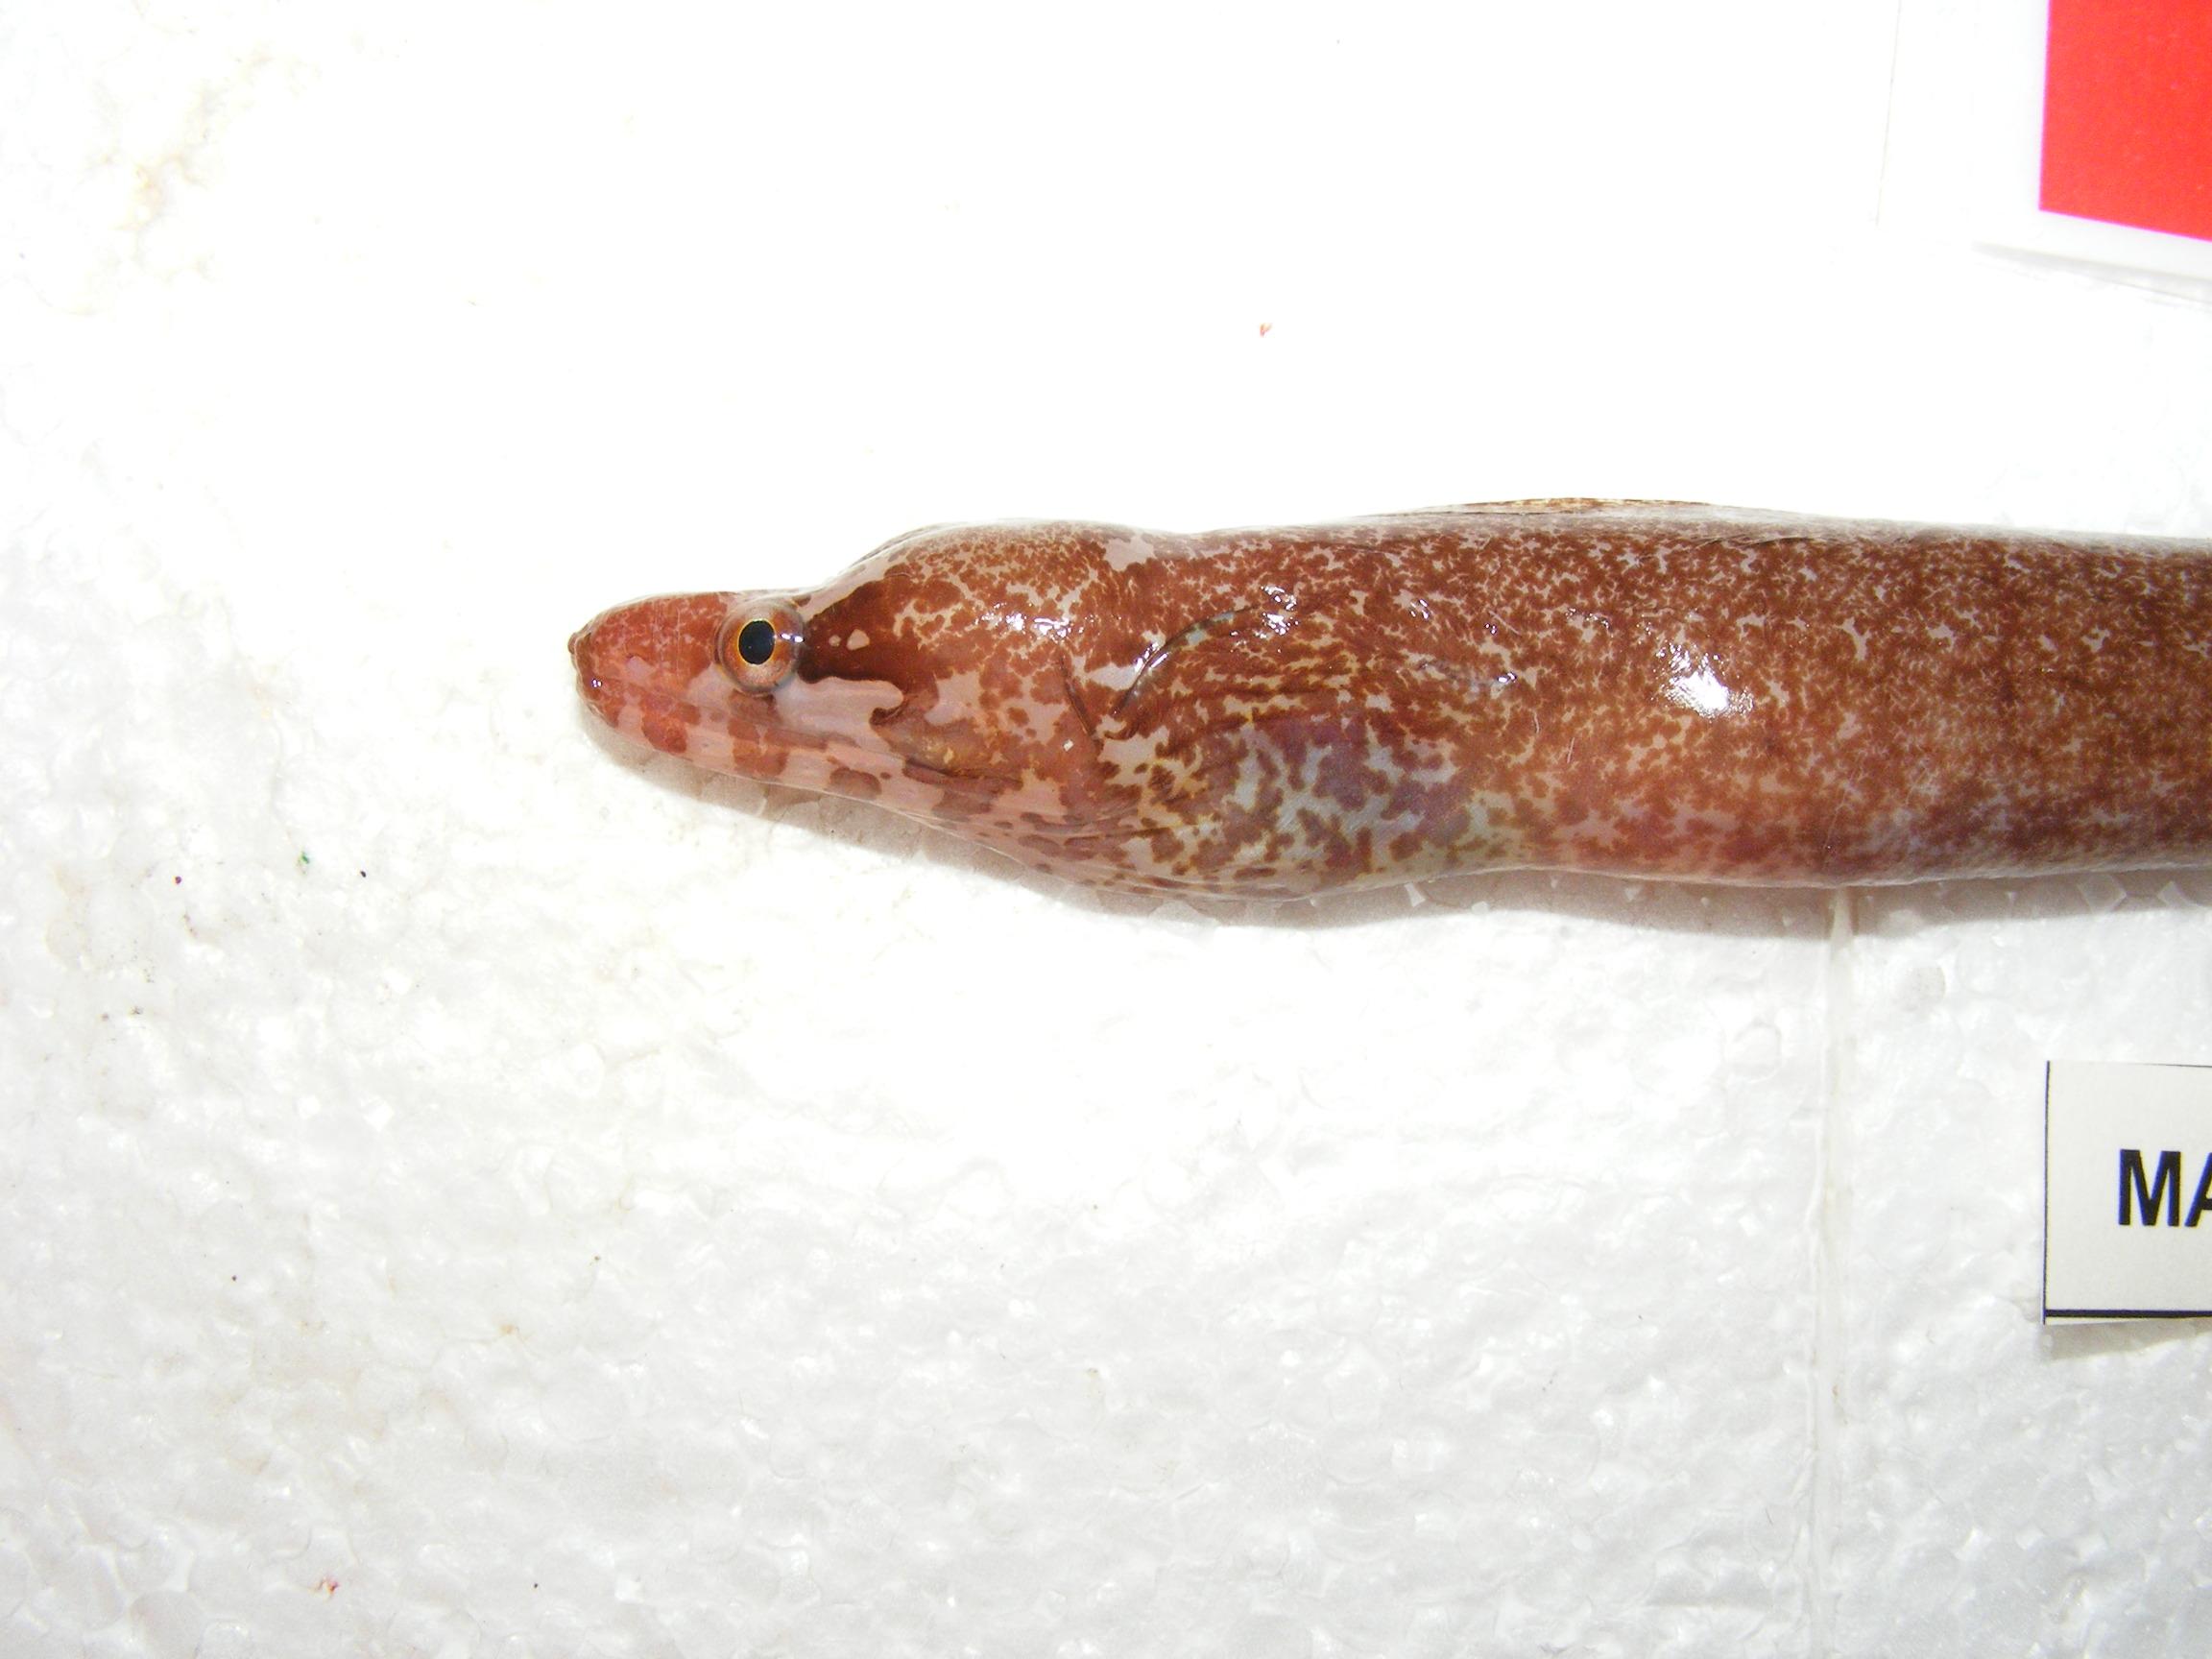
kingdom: Animalia
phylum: Chordata
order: Anguilliformes
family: Muraenidae
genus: Gymnothorax
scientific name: Gymnothorax zonipectis
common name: Bar-tail moray
